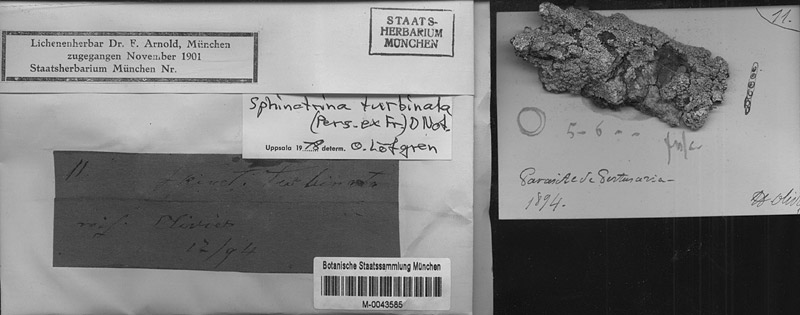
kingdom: Fungi
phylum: Ascomycota
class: Eurotiomycetes
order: Mycocaliciales
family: Sphinctrinaceae
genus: Sphinctrina
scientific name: Sphinctrina turbinata
